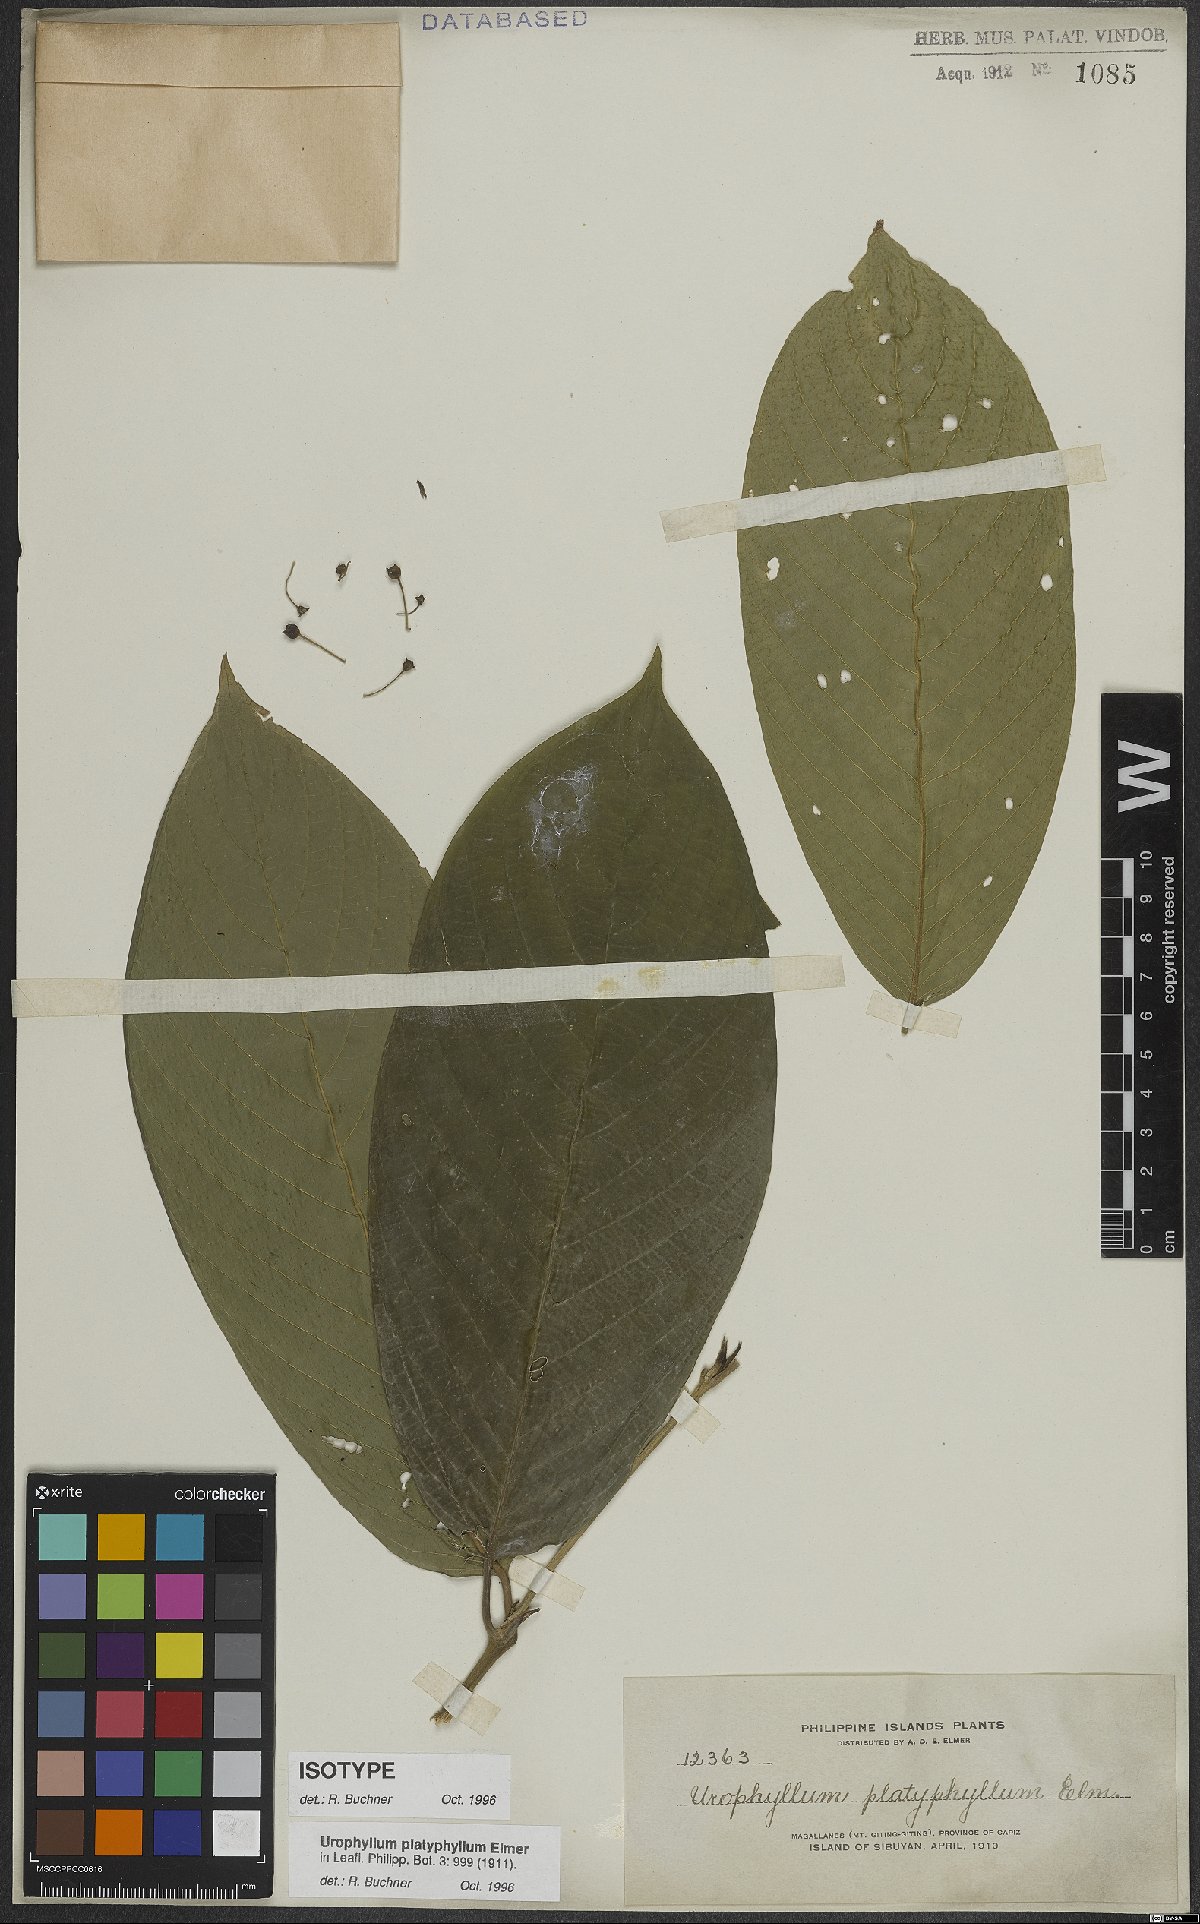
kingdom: Plantae
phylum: Tracheophyta
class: Magnoliopsida
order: Gentianales
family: Rubiaceae
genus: Urophyllum
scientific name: Urophyllum platyphyllum
